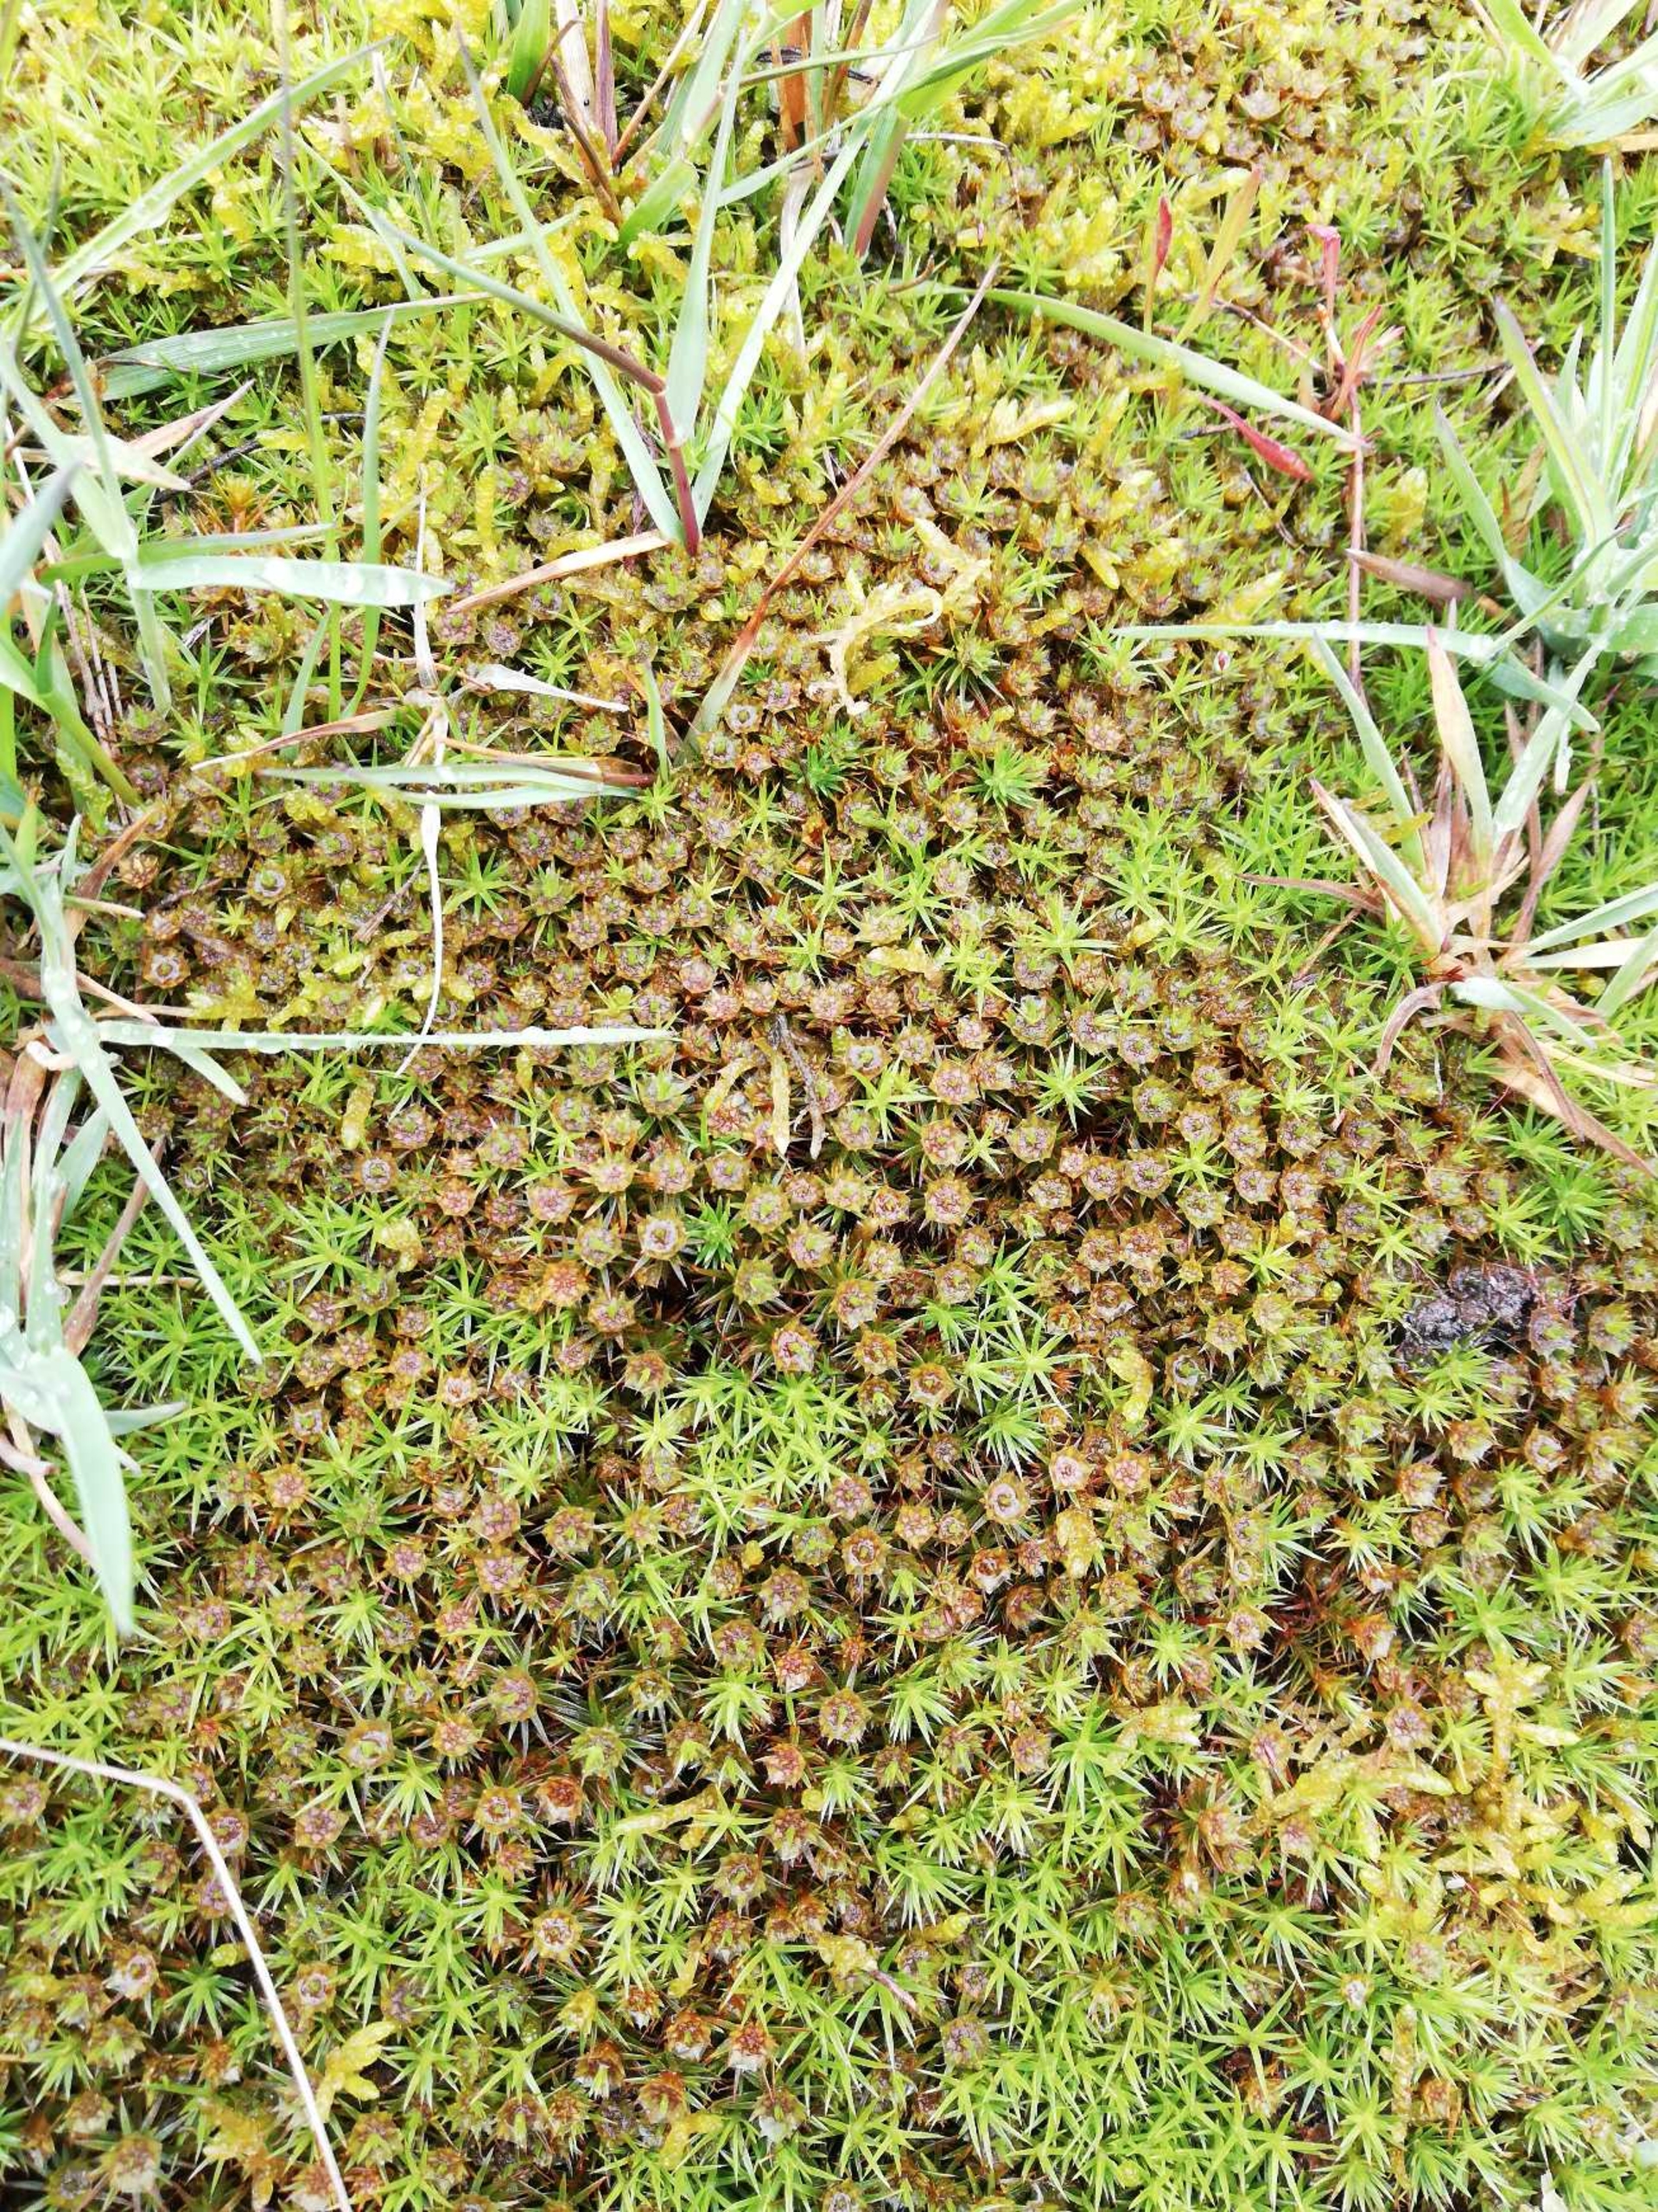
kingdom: Plantae
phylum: Bryophyta
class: Polytrichopsida
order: Polytrichales
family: Polytrichaceae
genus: Polytrichum
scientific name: Polytrichum juniperinum
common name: Ene-jomfruhår
